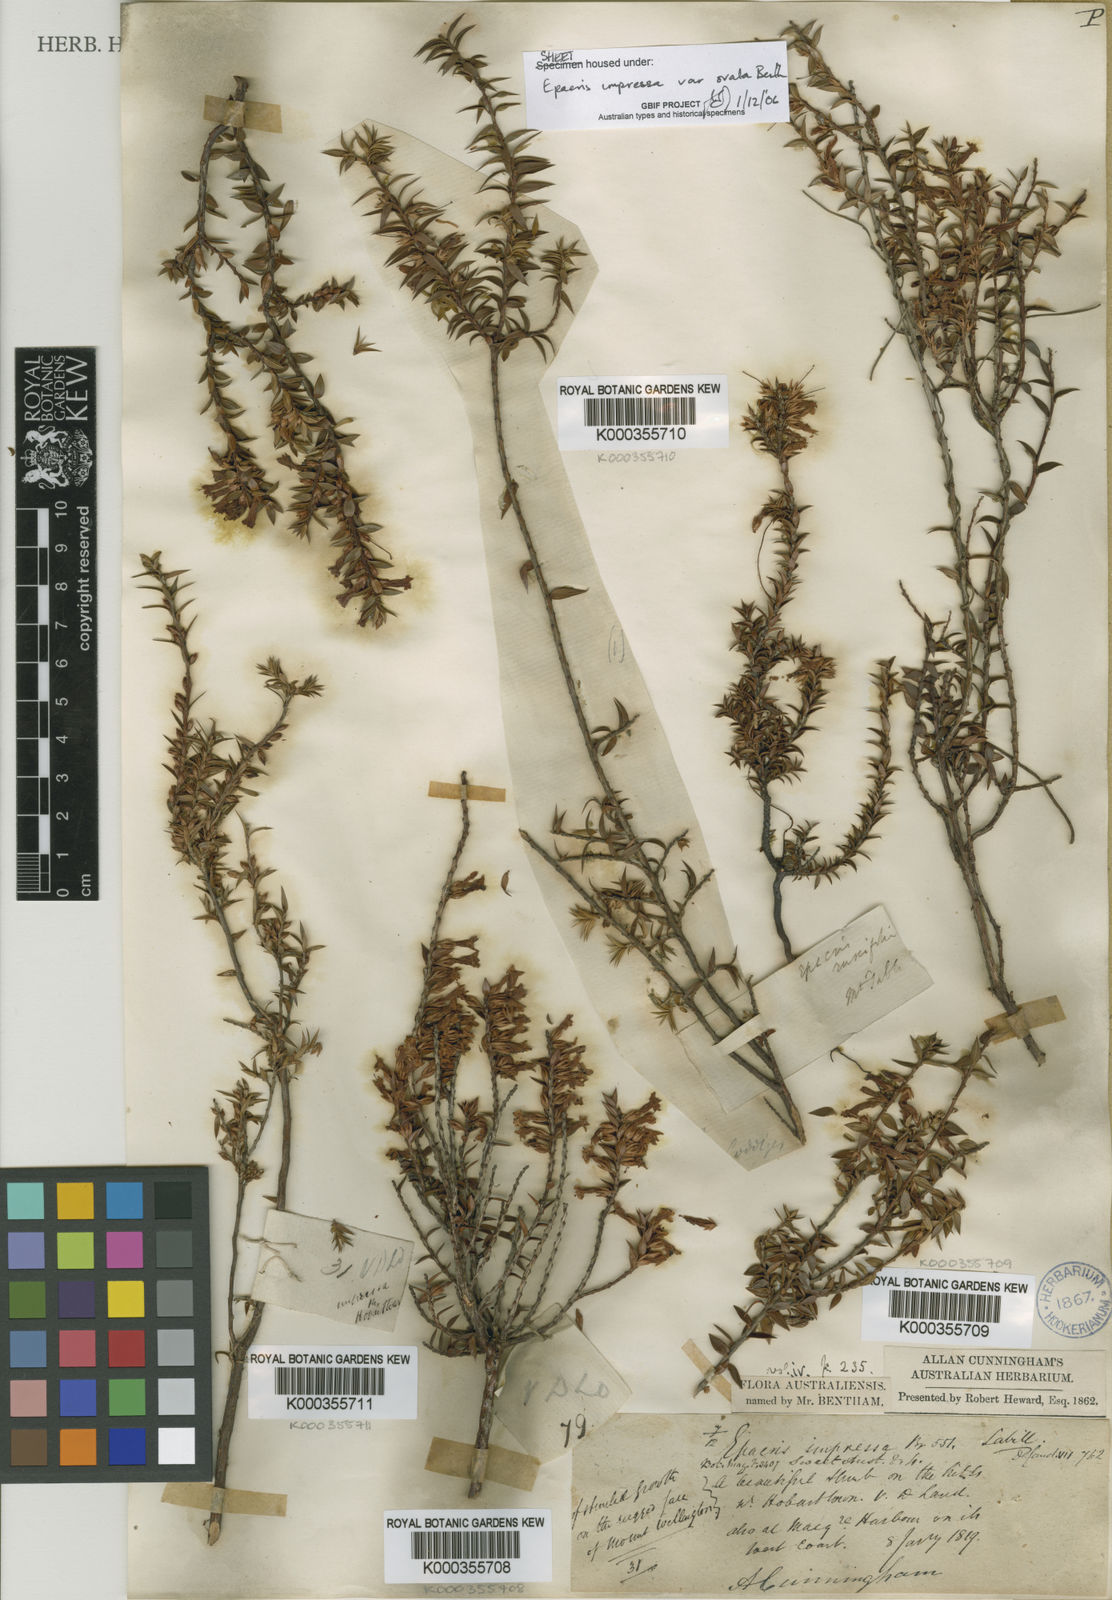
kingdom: Plantae
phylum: Tracheophyta
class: Magnoliopsida
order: Ericales
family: Ericaceae
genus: Epacris
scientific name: Epacris impressa
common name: Common-heath
